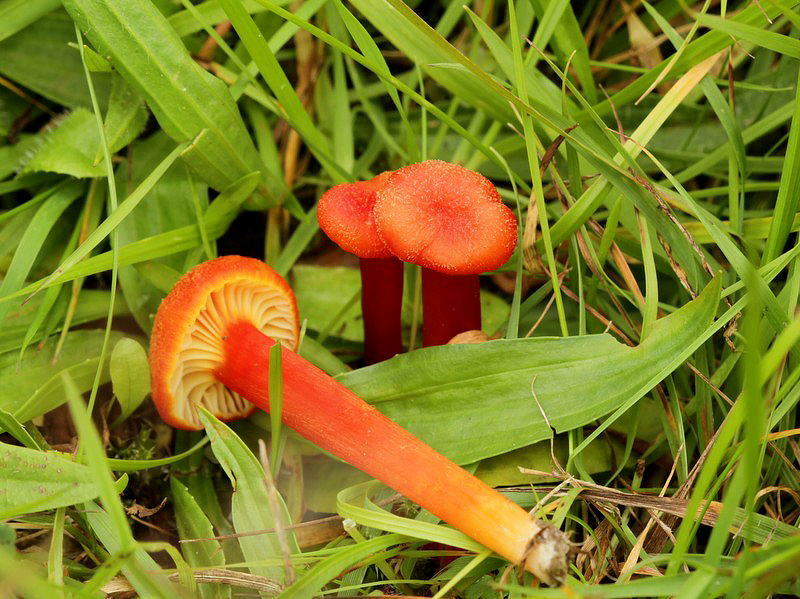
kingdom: Fungi
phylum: Basidiomycota
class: Agaricomycetes
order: Agaricales
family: Hygrophoraceae
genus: Hygrocybe
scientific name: Hygrocybe cantharellus
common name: kantarel-vokshat
